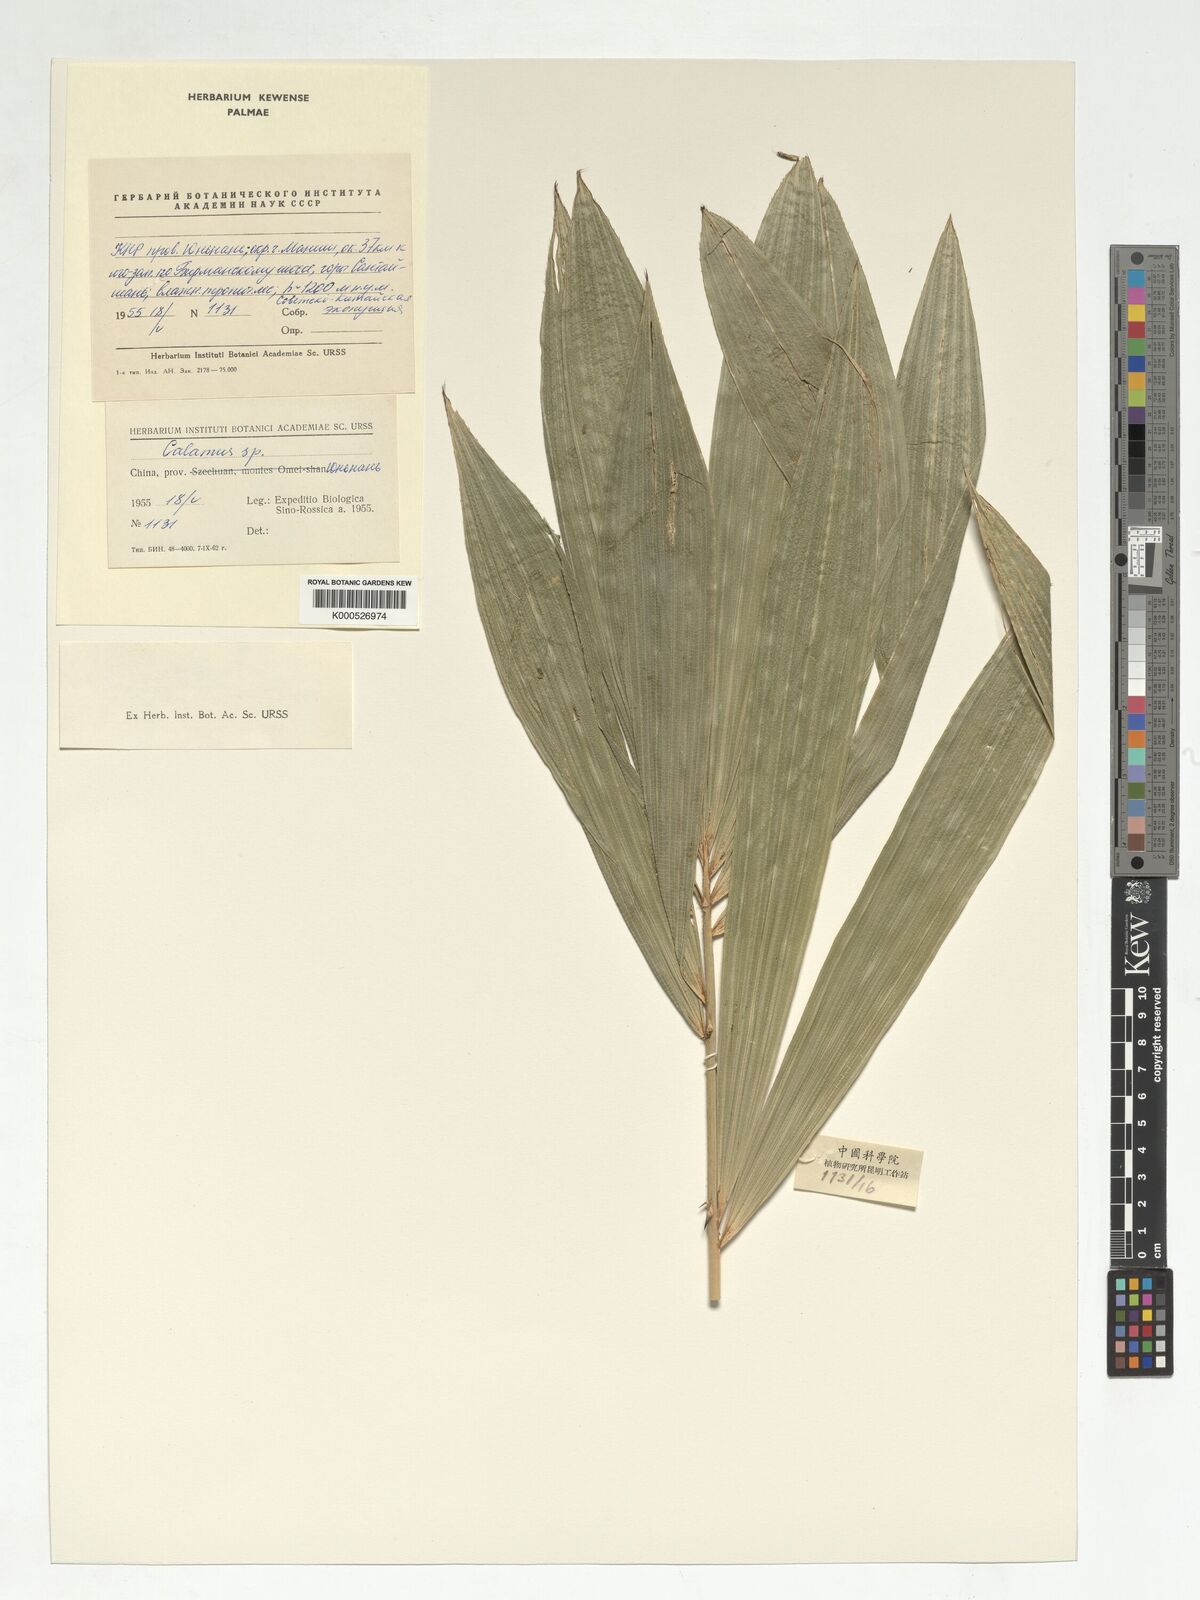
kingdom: Plantae
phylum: Tracheophyta
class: Liliopsida
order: Arecales
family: Arecaceae
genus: Calamus
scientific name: Calamus
